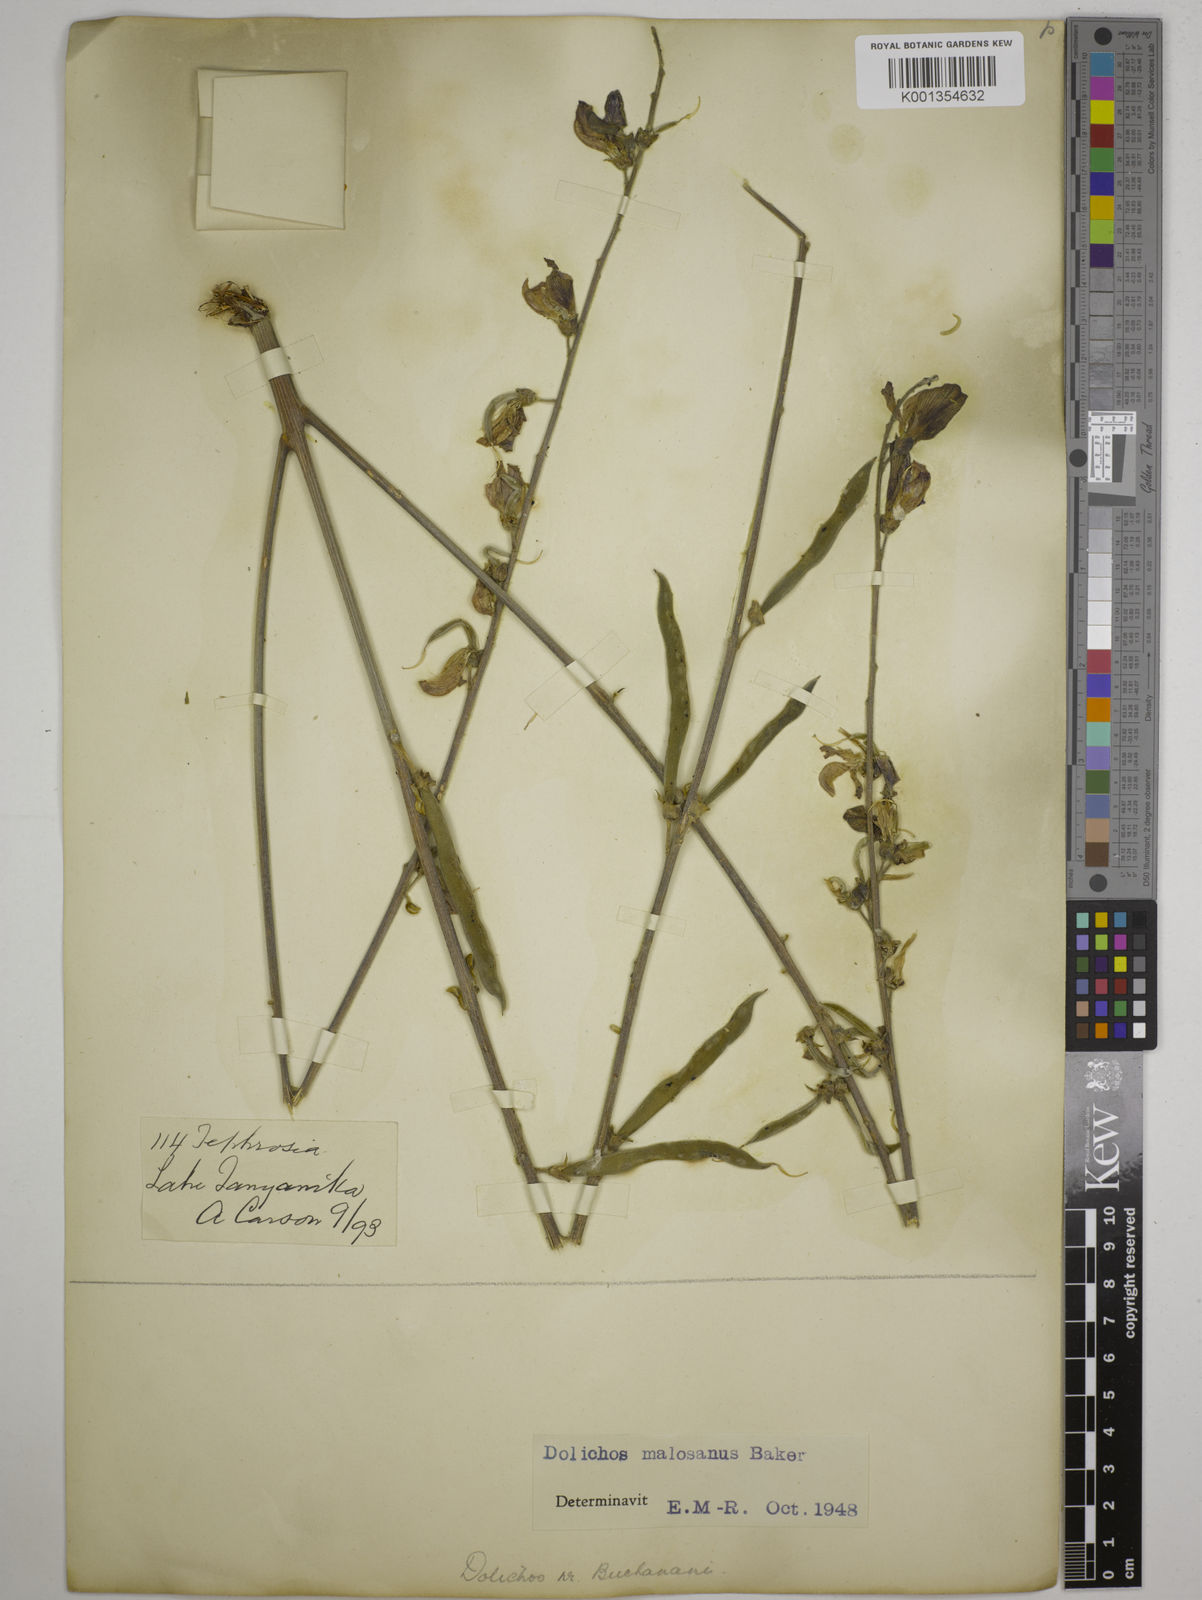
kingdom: Plantae
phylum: Tracheophyta
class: Magnoliopsida
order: Fabales
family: Fabaceae
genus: Dolichos
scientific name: Dolichos kilimandscharicus
